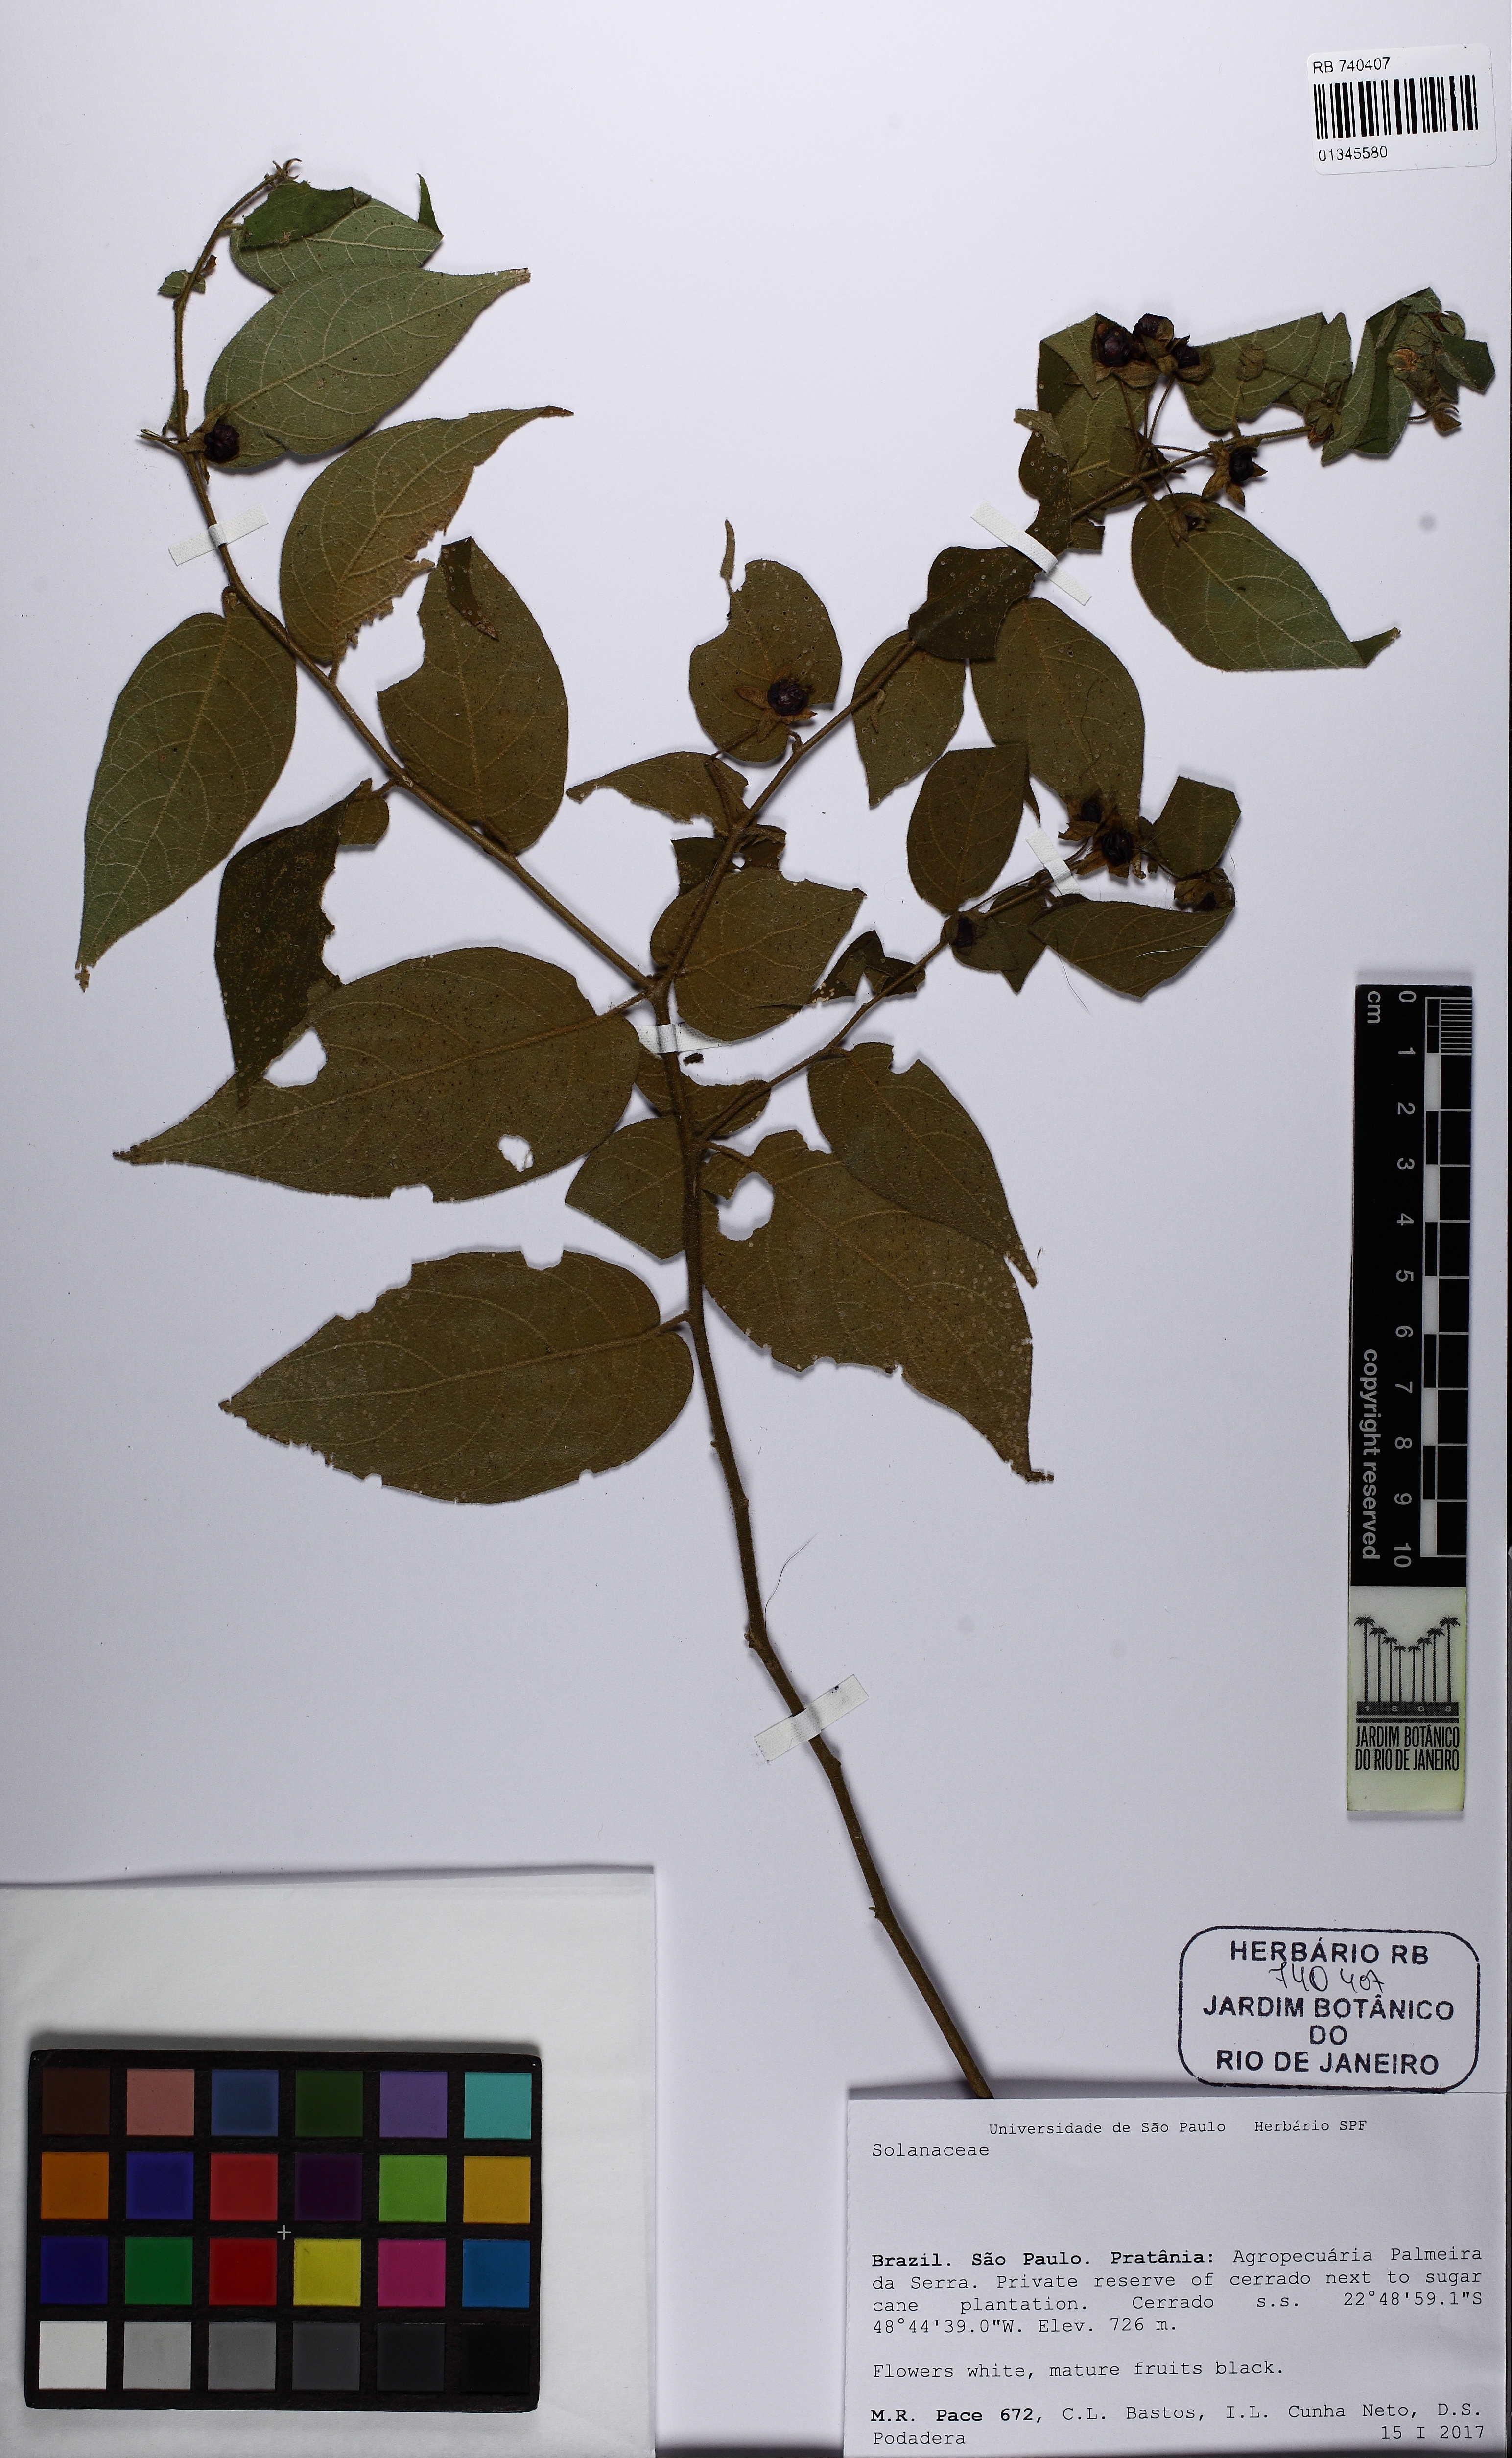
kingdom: Plantae
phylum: Tracheophyta
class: Magnoliopsida
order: Solanales
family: Solanaceae
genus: Solanum
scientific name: Solanum didymum
